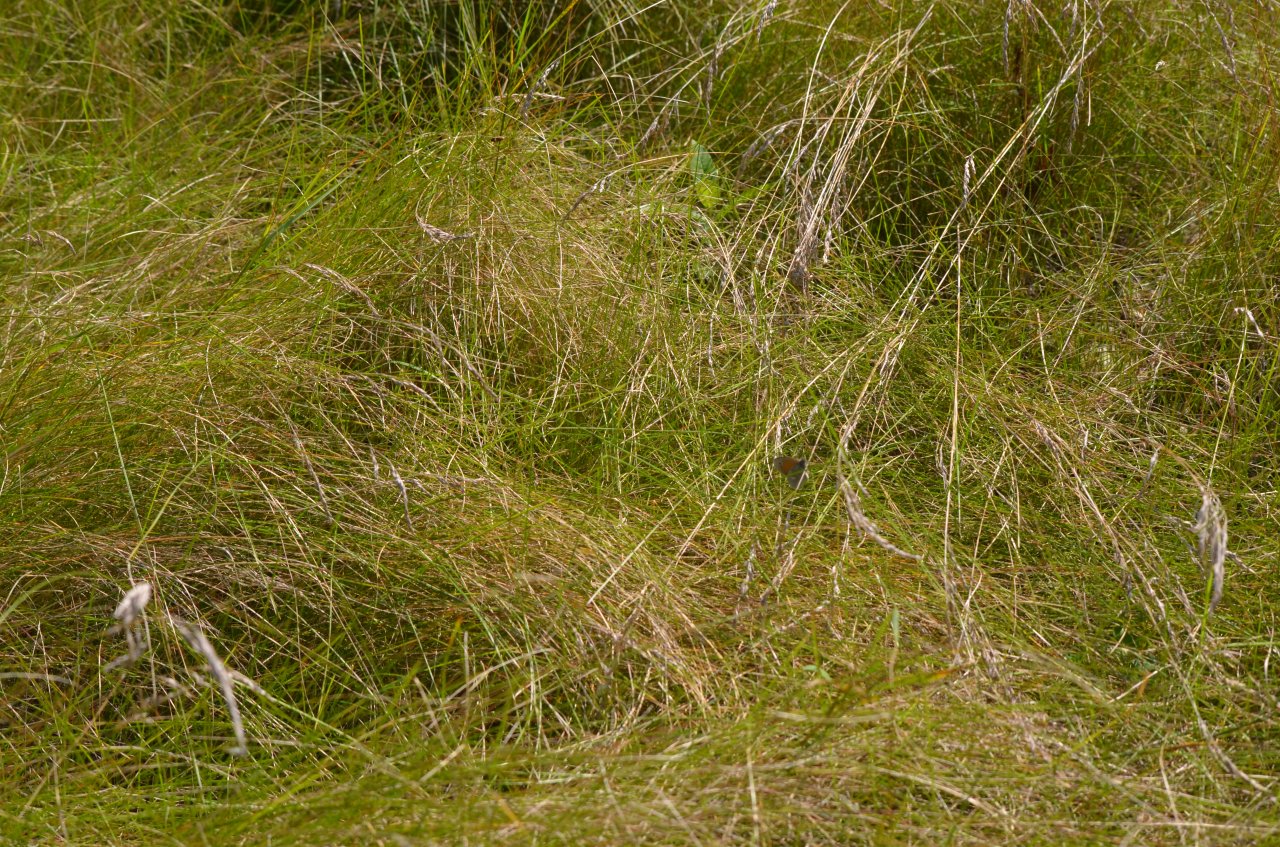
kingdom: Animalia
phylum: Arthropoda
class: Insecta
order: Lepidoptera
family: Nymphalidae
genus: Coenonympha
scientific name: Coenonympha tullia
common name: Large Heath
